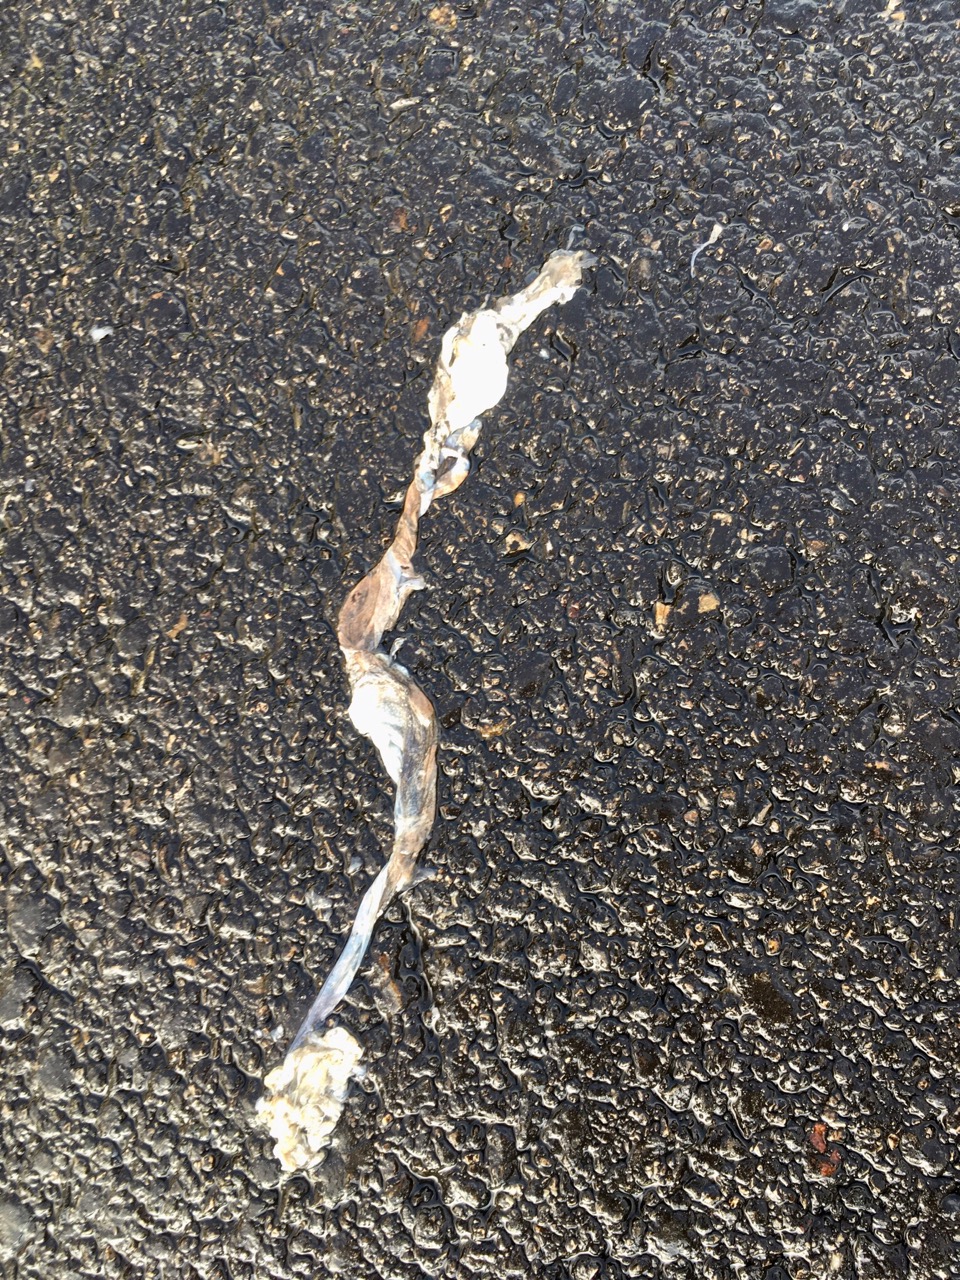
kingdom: Animalia
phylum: Chordata
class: Amphibia
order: Anura
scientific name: Anura
